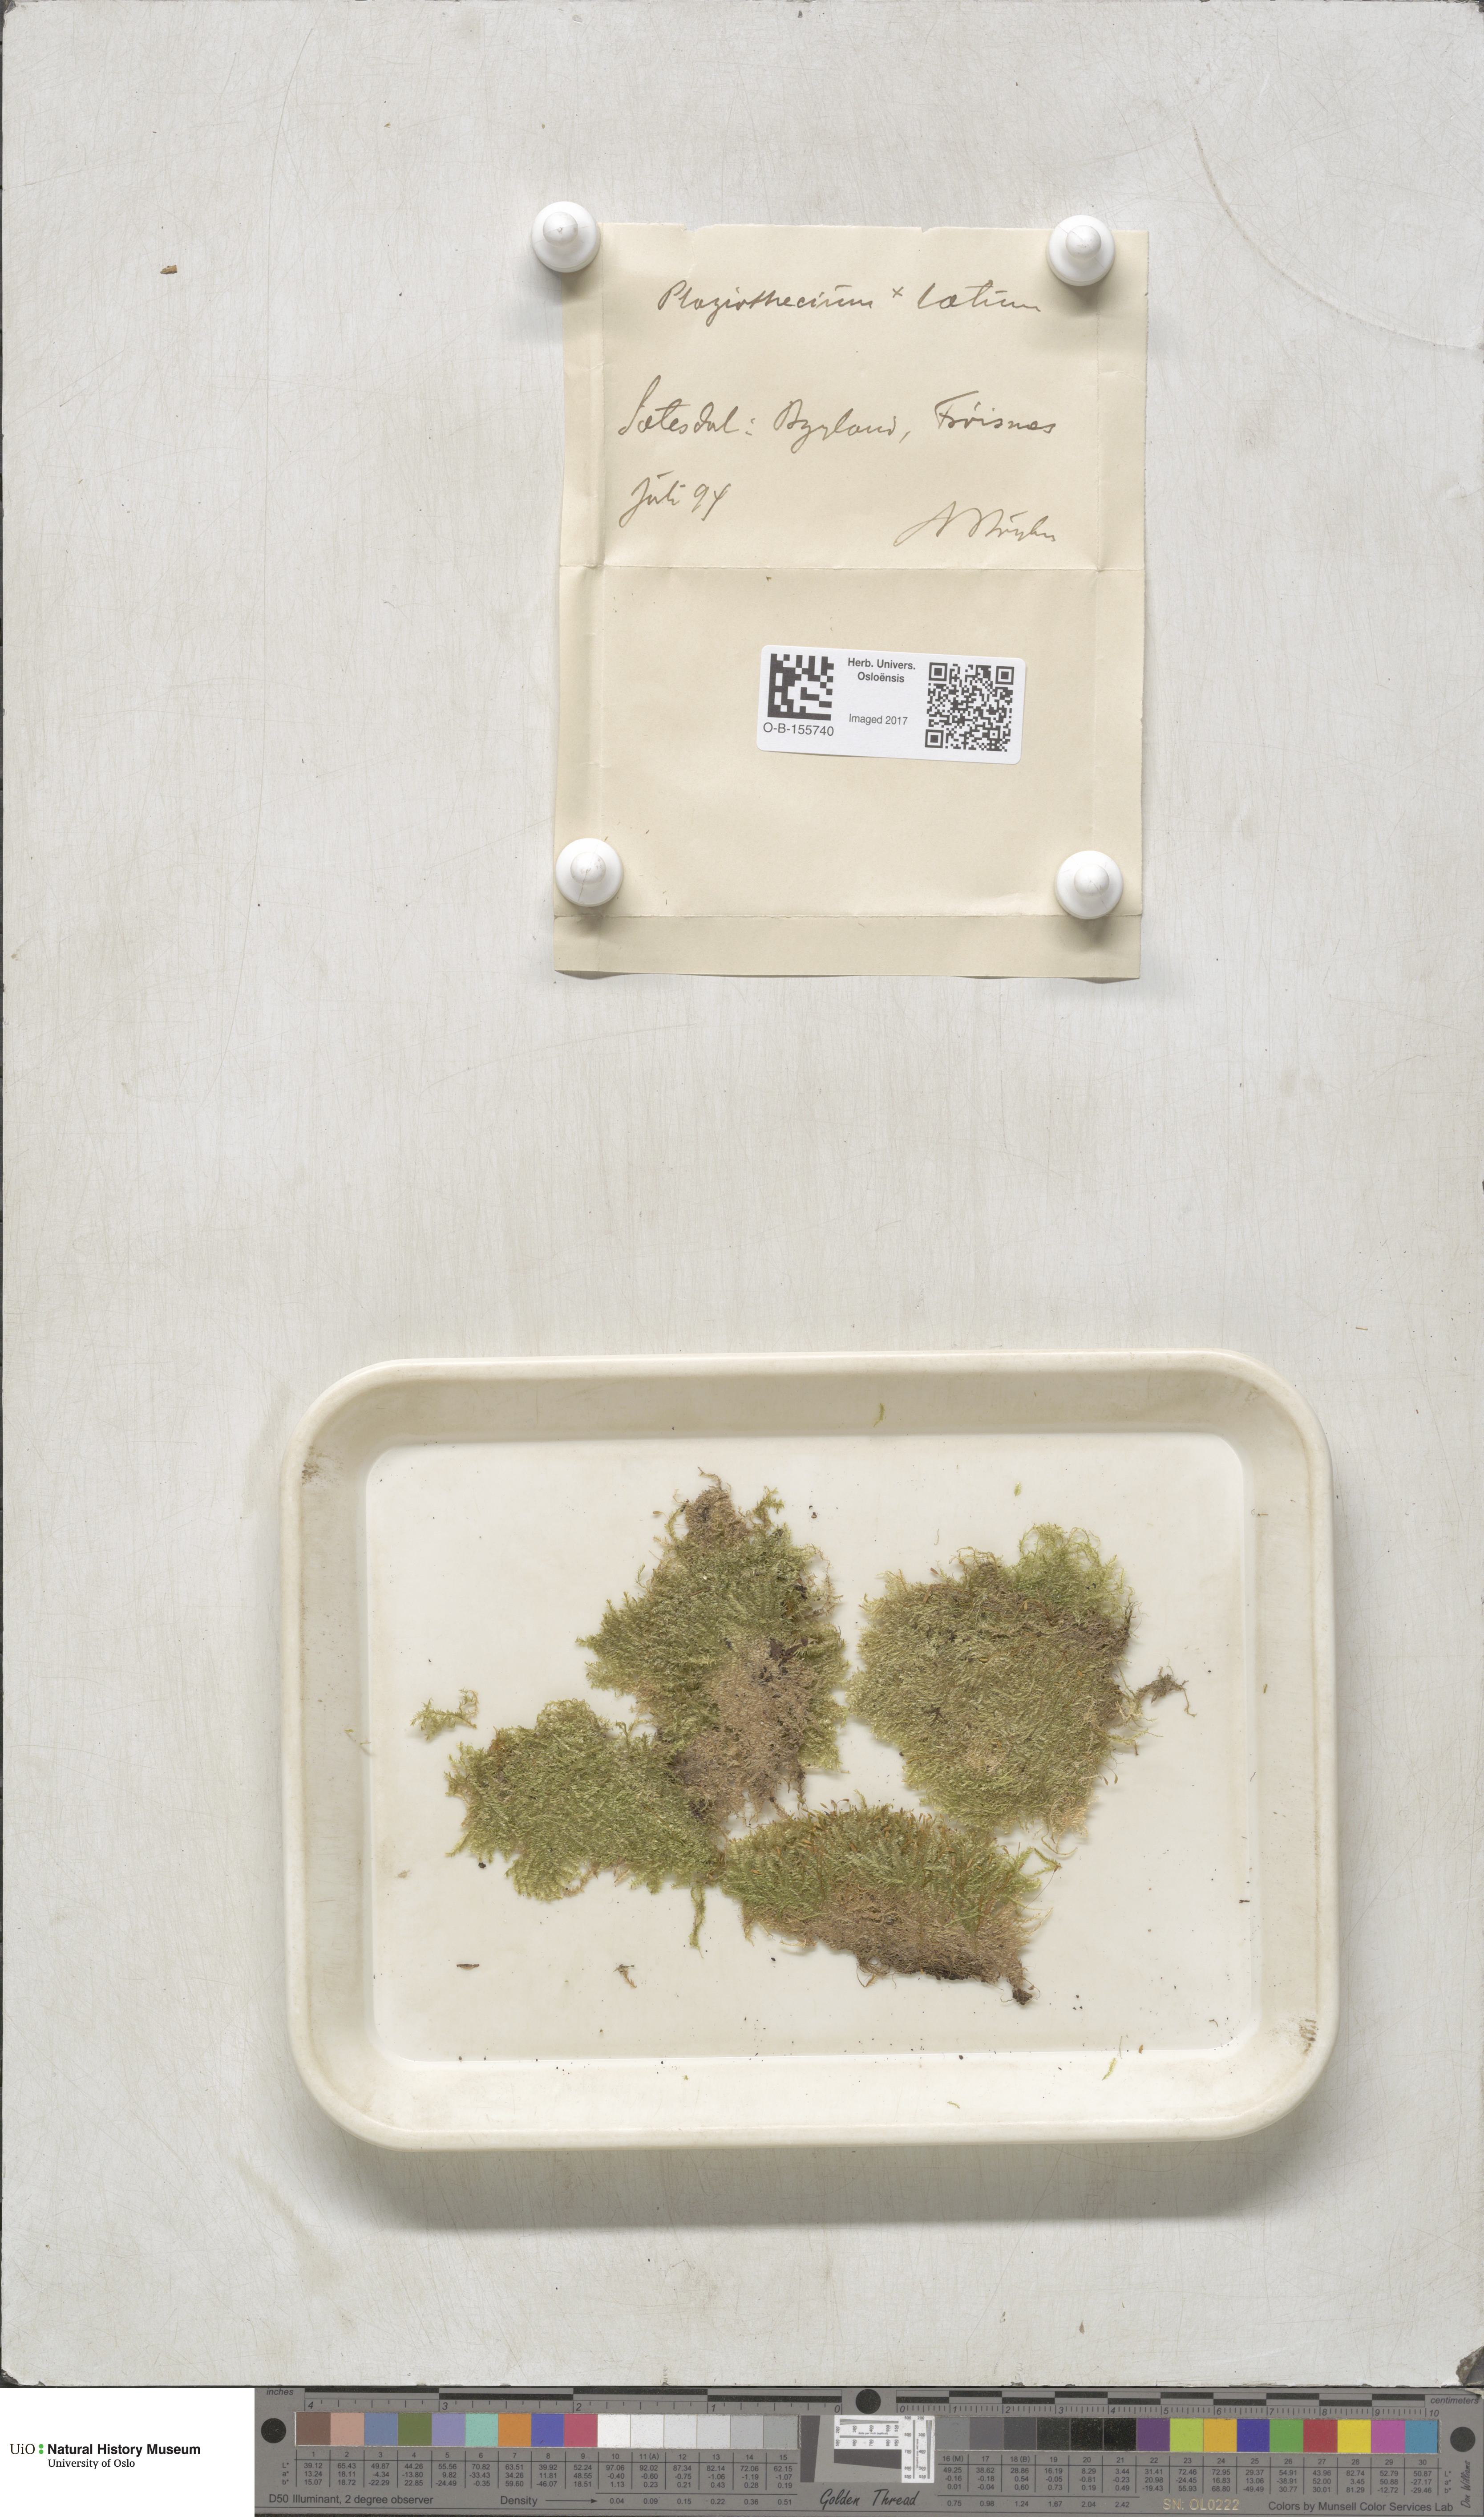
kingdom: Plantae
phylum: Bryophyta
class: Bryopsida
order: Hypnales
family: Plagiotheciaceae
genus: Plagiothecium
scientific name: Plagiothecium laetum
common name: Bright silk moss
